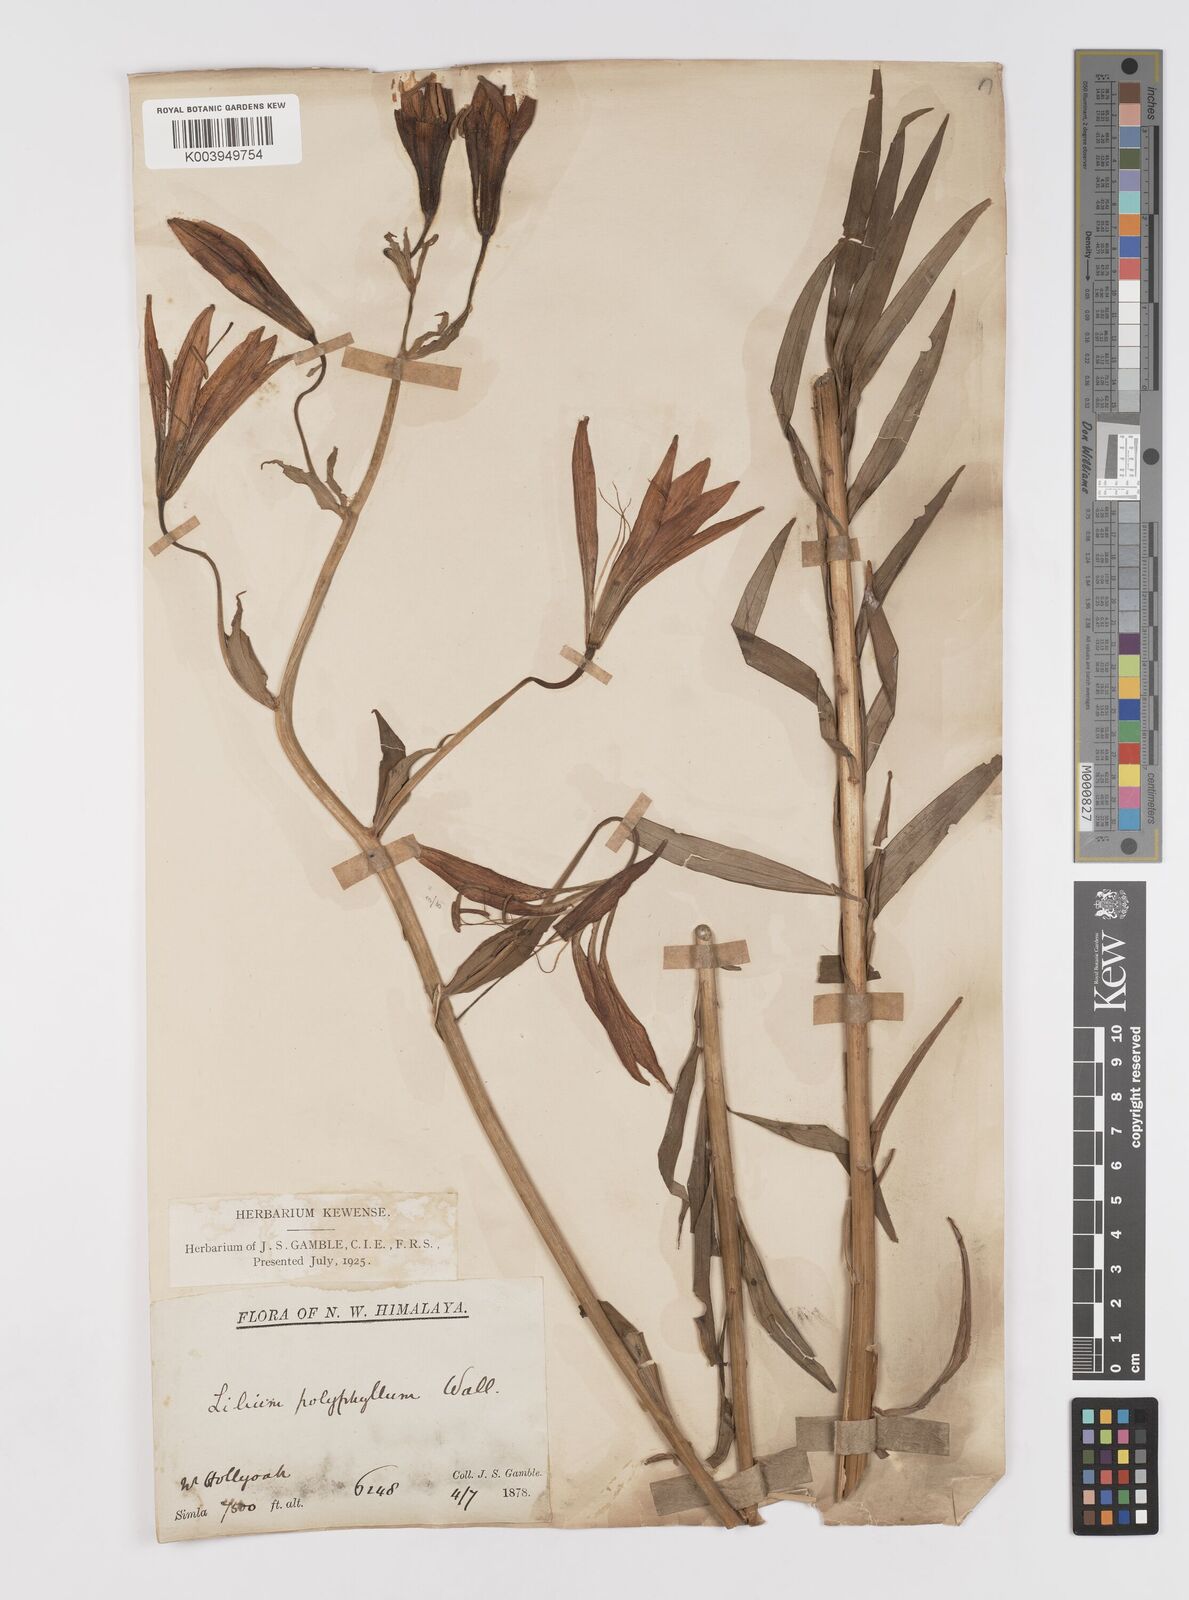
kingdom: Plantae
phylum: Tracheophyta
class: Liliopsida
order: Liliales
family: Liliaceae
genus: Lilium
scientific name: Lilium polyphyllum
